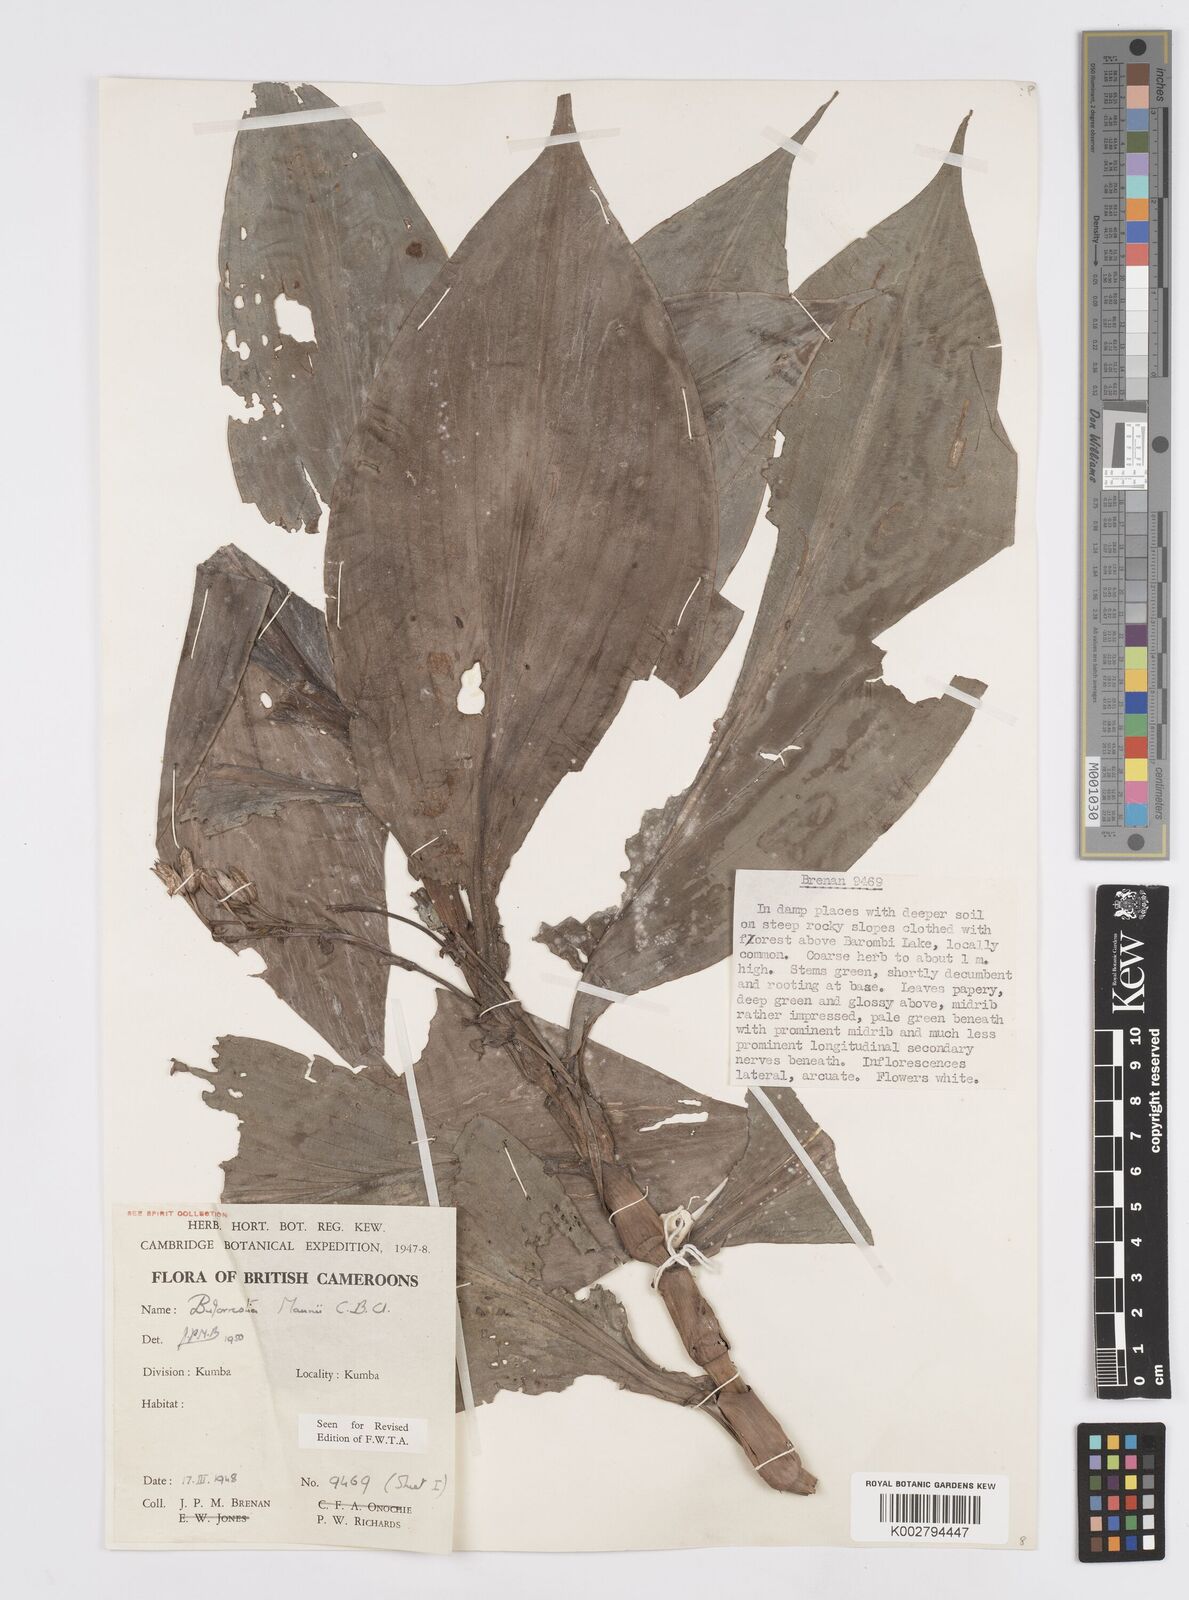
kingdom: Plantae
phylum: Tracheophyta
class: Liliopsida
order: Commelinales
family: Commelinaceae
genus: Buforrestia
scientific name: Buforrestia mannii
